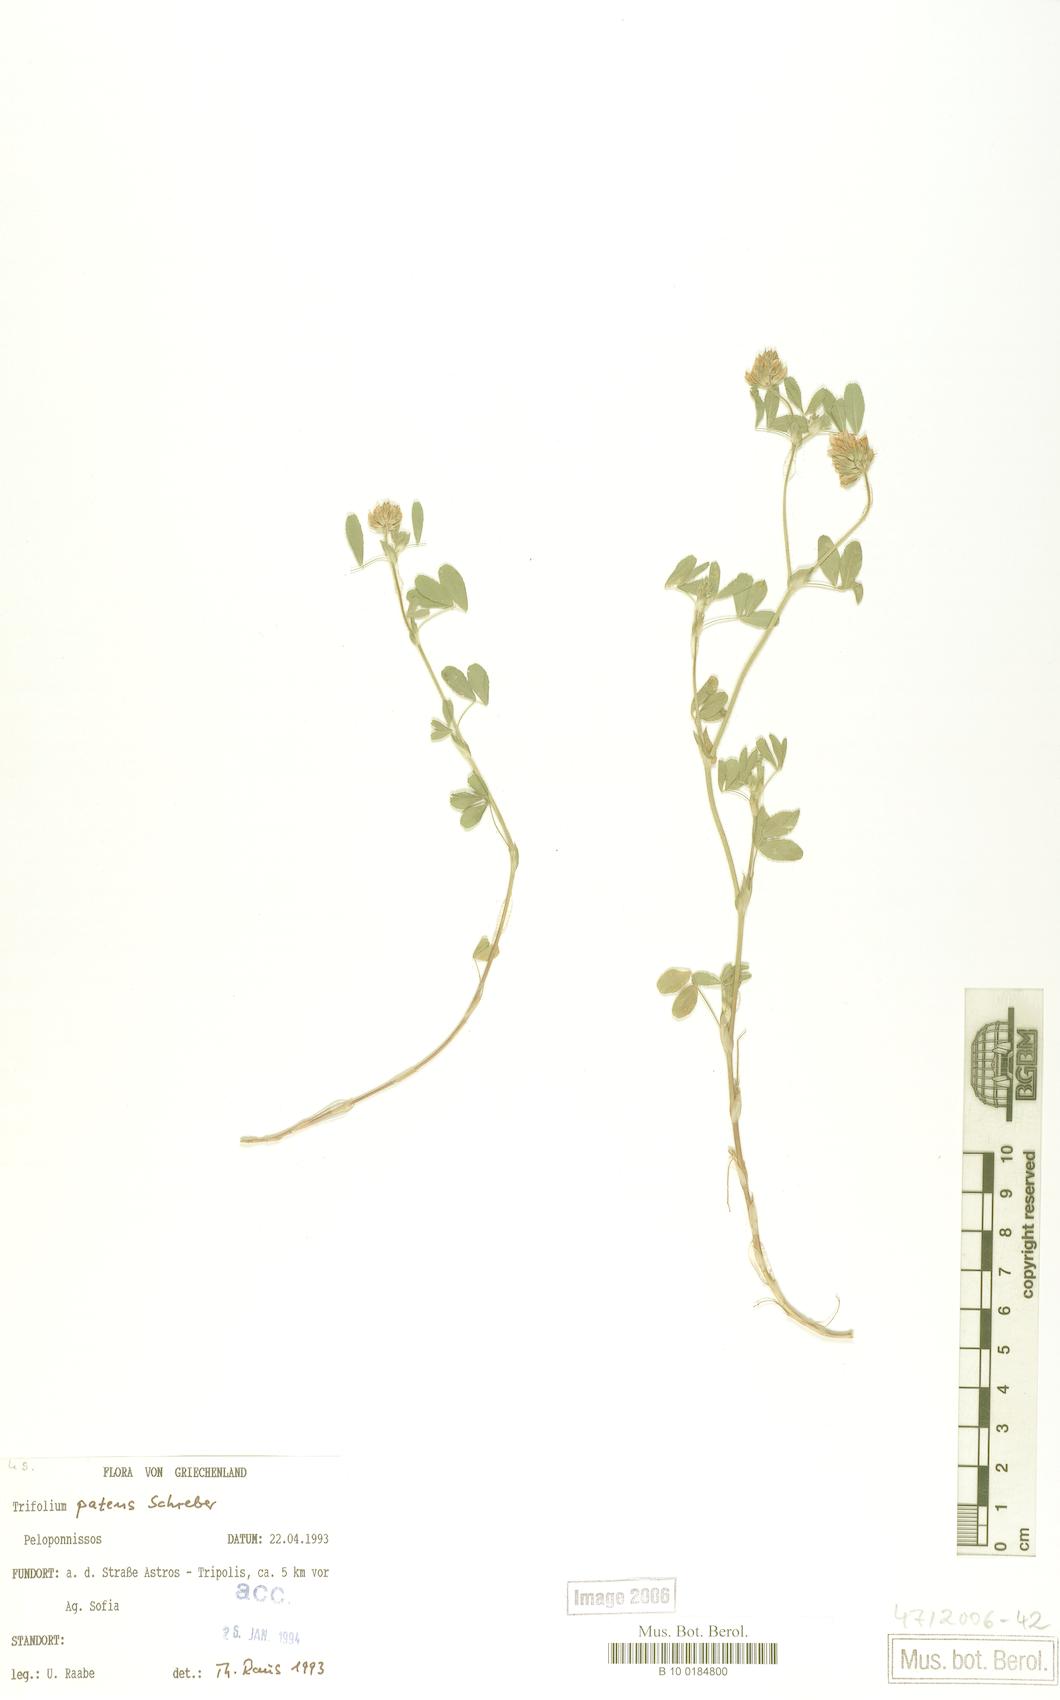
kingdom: Plantae
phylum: Tracheophyta
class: Magnoliopsida
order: Fabales
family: Fabaceae
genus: Trifolium
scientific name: Trifolium patens
